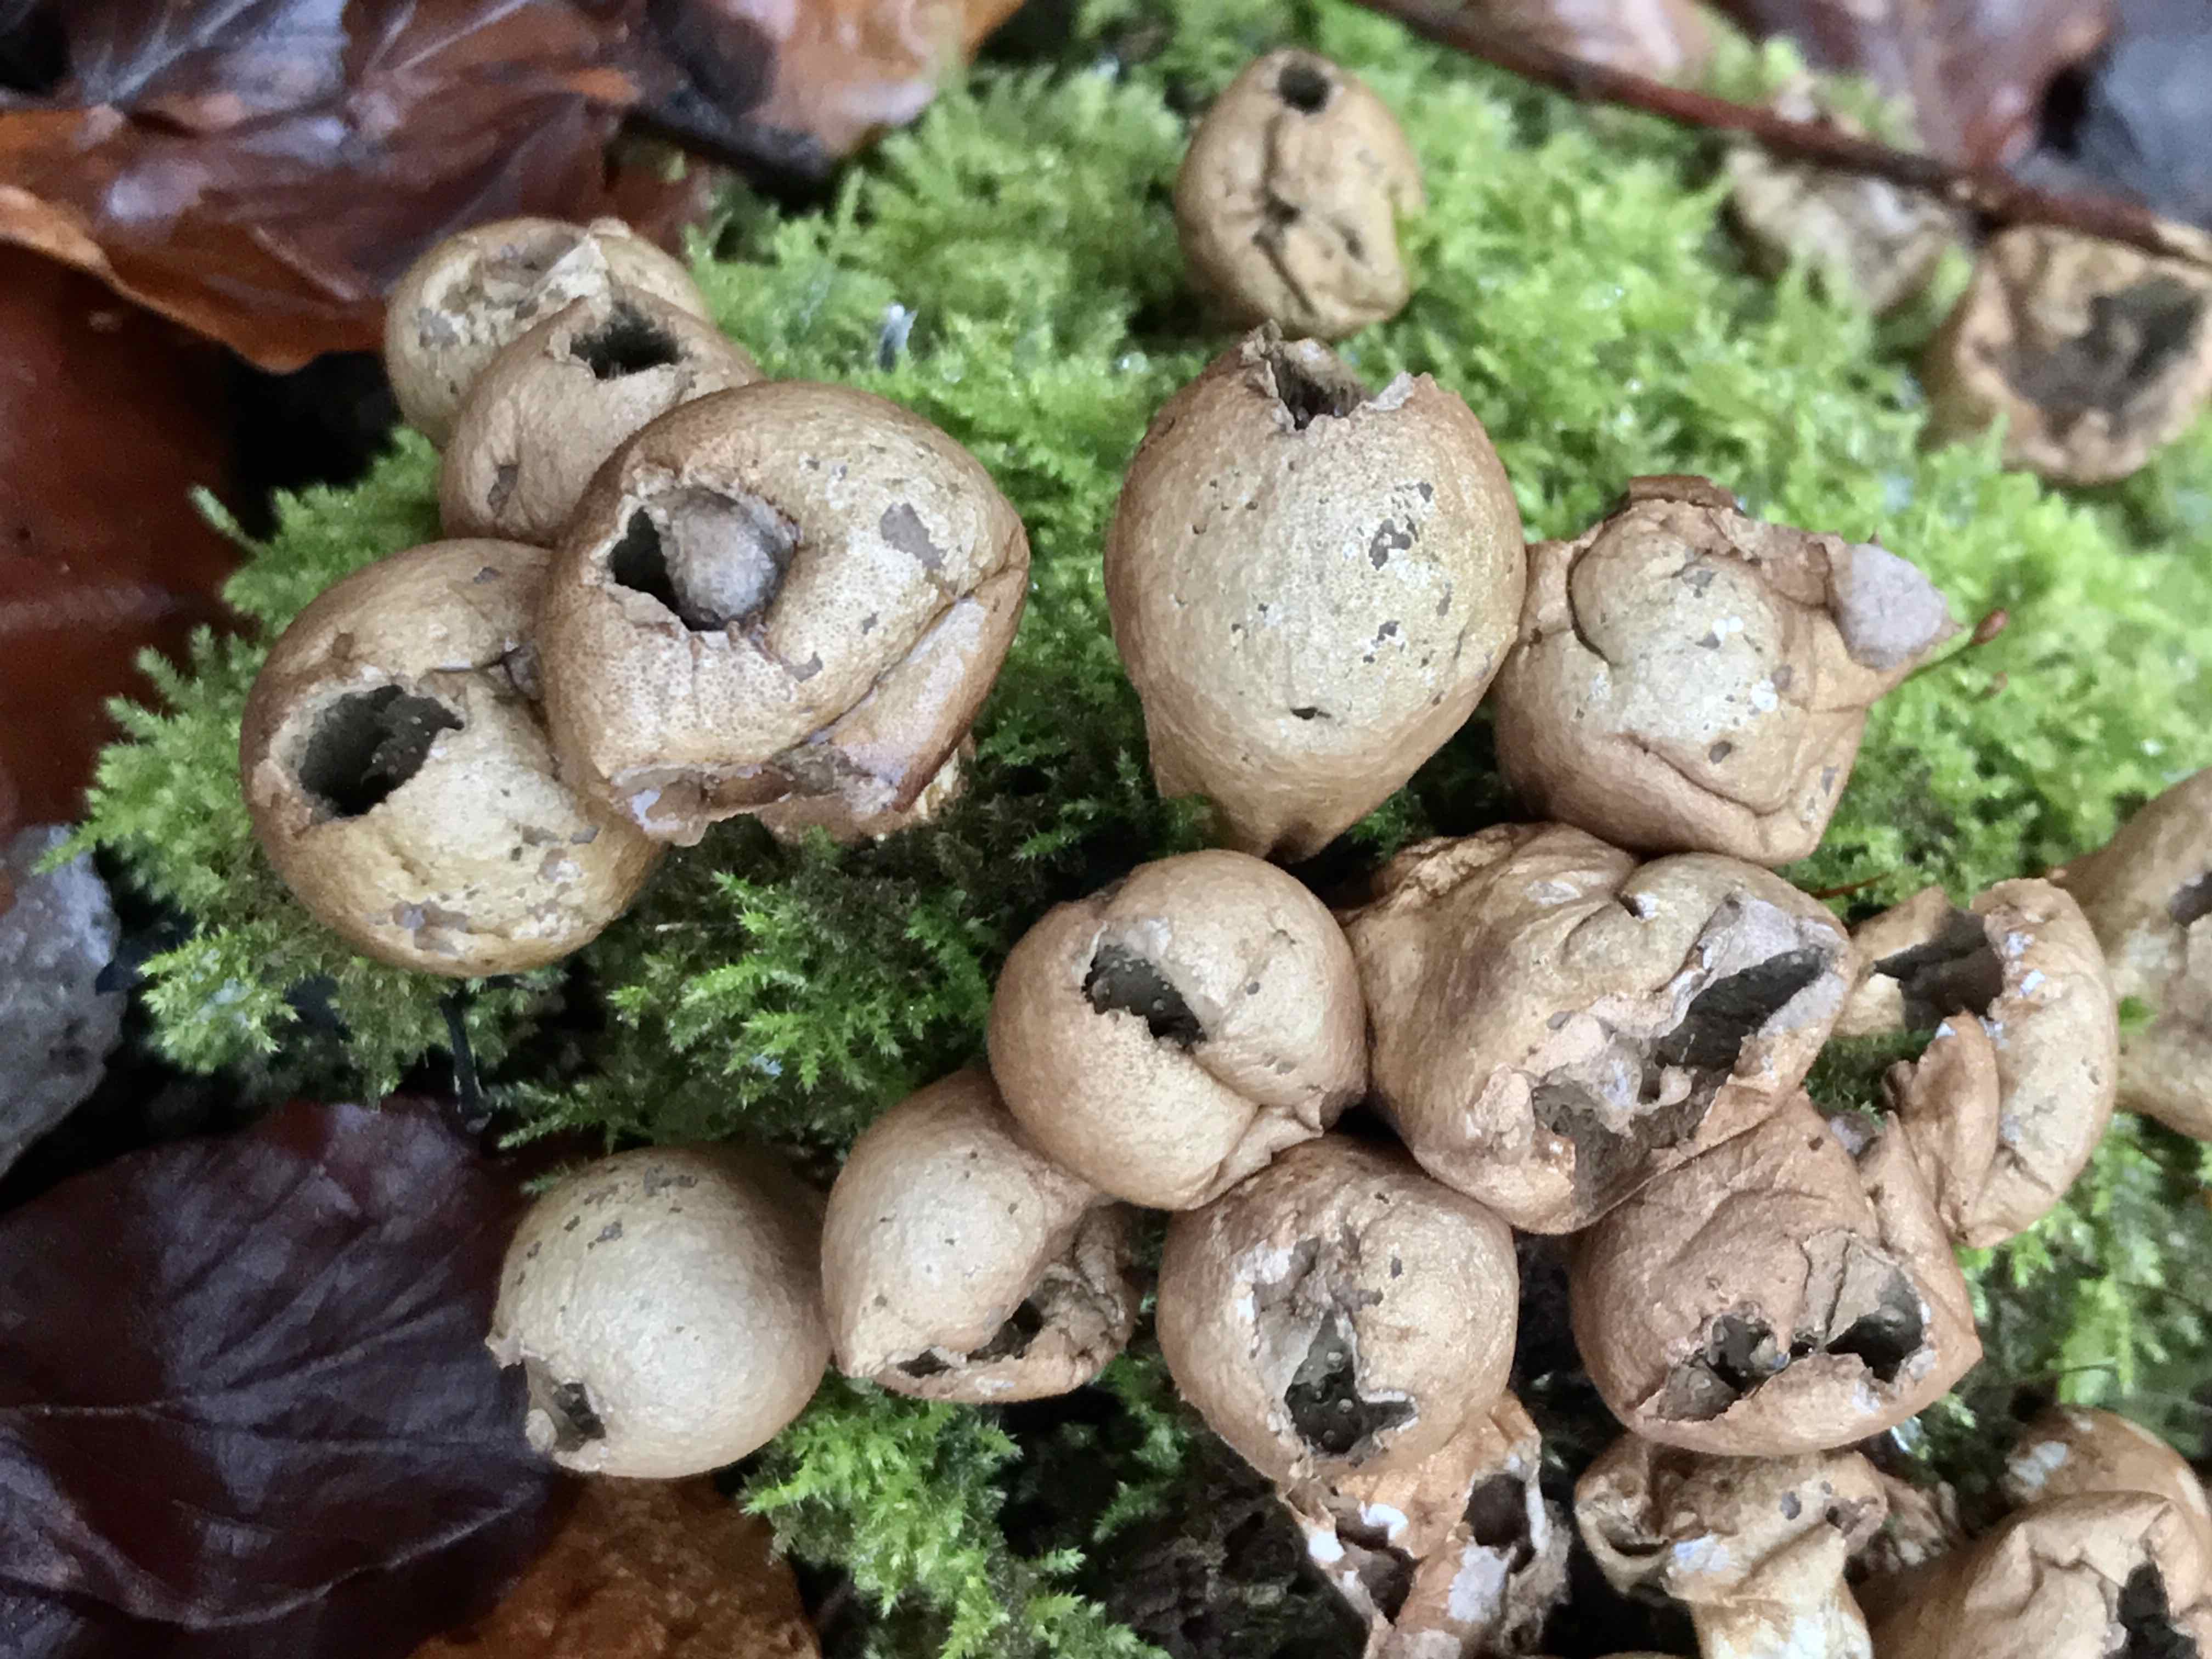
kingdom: Fungi
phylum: Basidiomycota
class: Agaricomycetes
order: Agaricales
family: Lycoperdaceae
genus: Apioperdon
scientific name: Apioperdon pyriforme
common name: pære-støvbold
